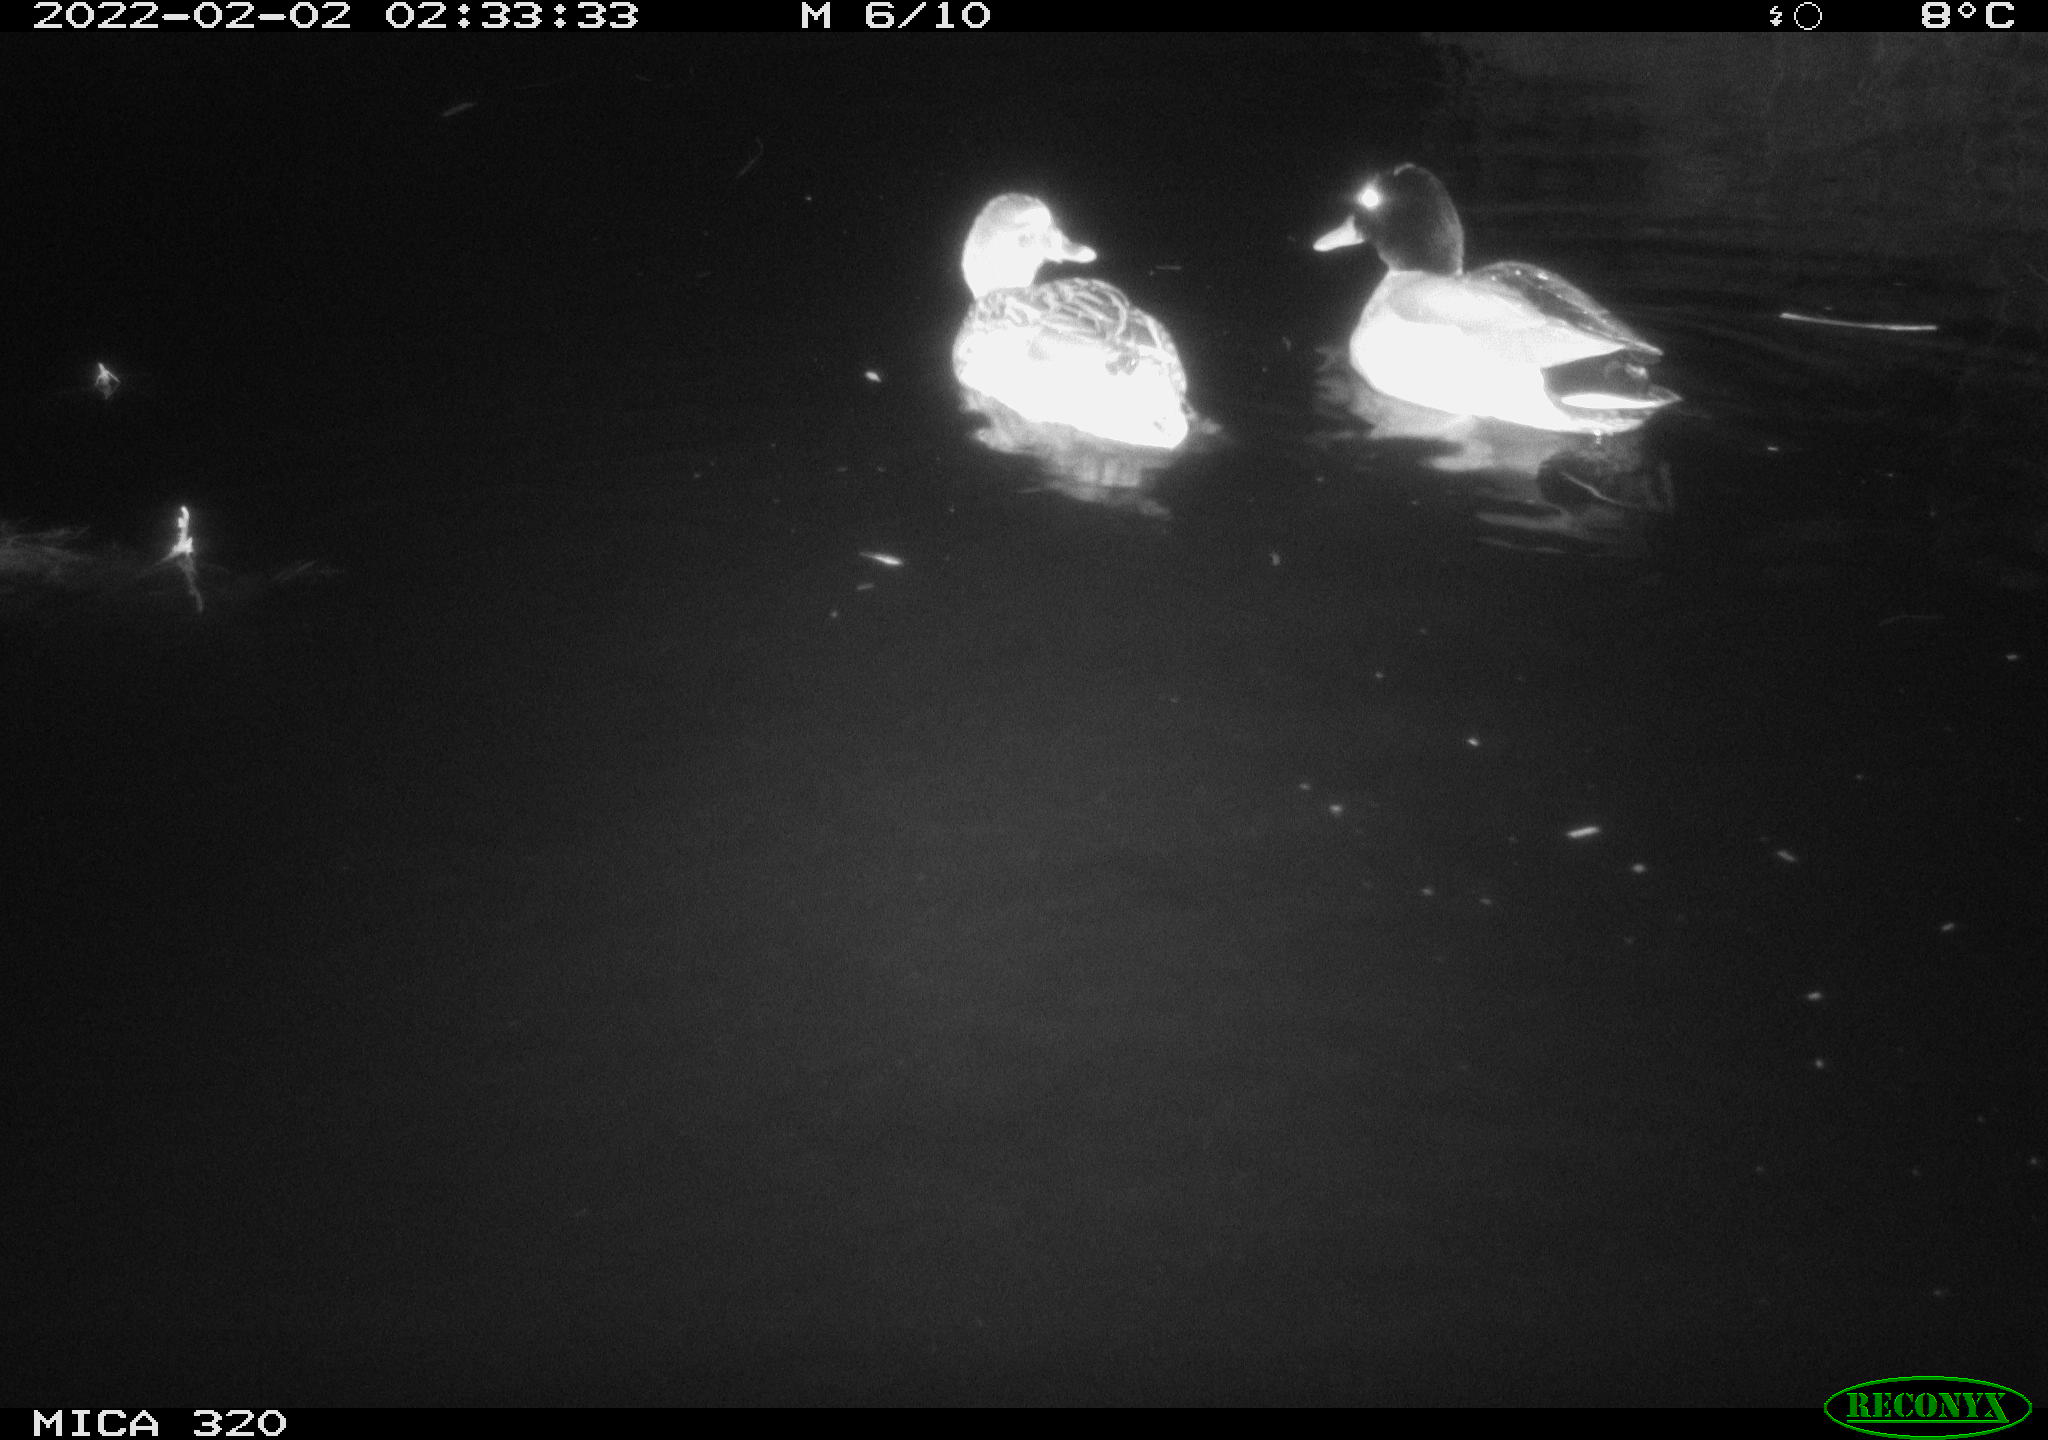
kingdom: Animalia
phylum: Chordata
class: Aves
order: Anseriformes
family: Anatidae
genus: Anas
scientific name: Anas
